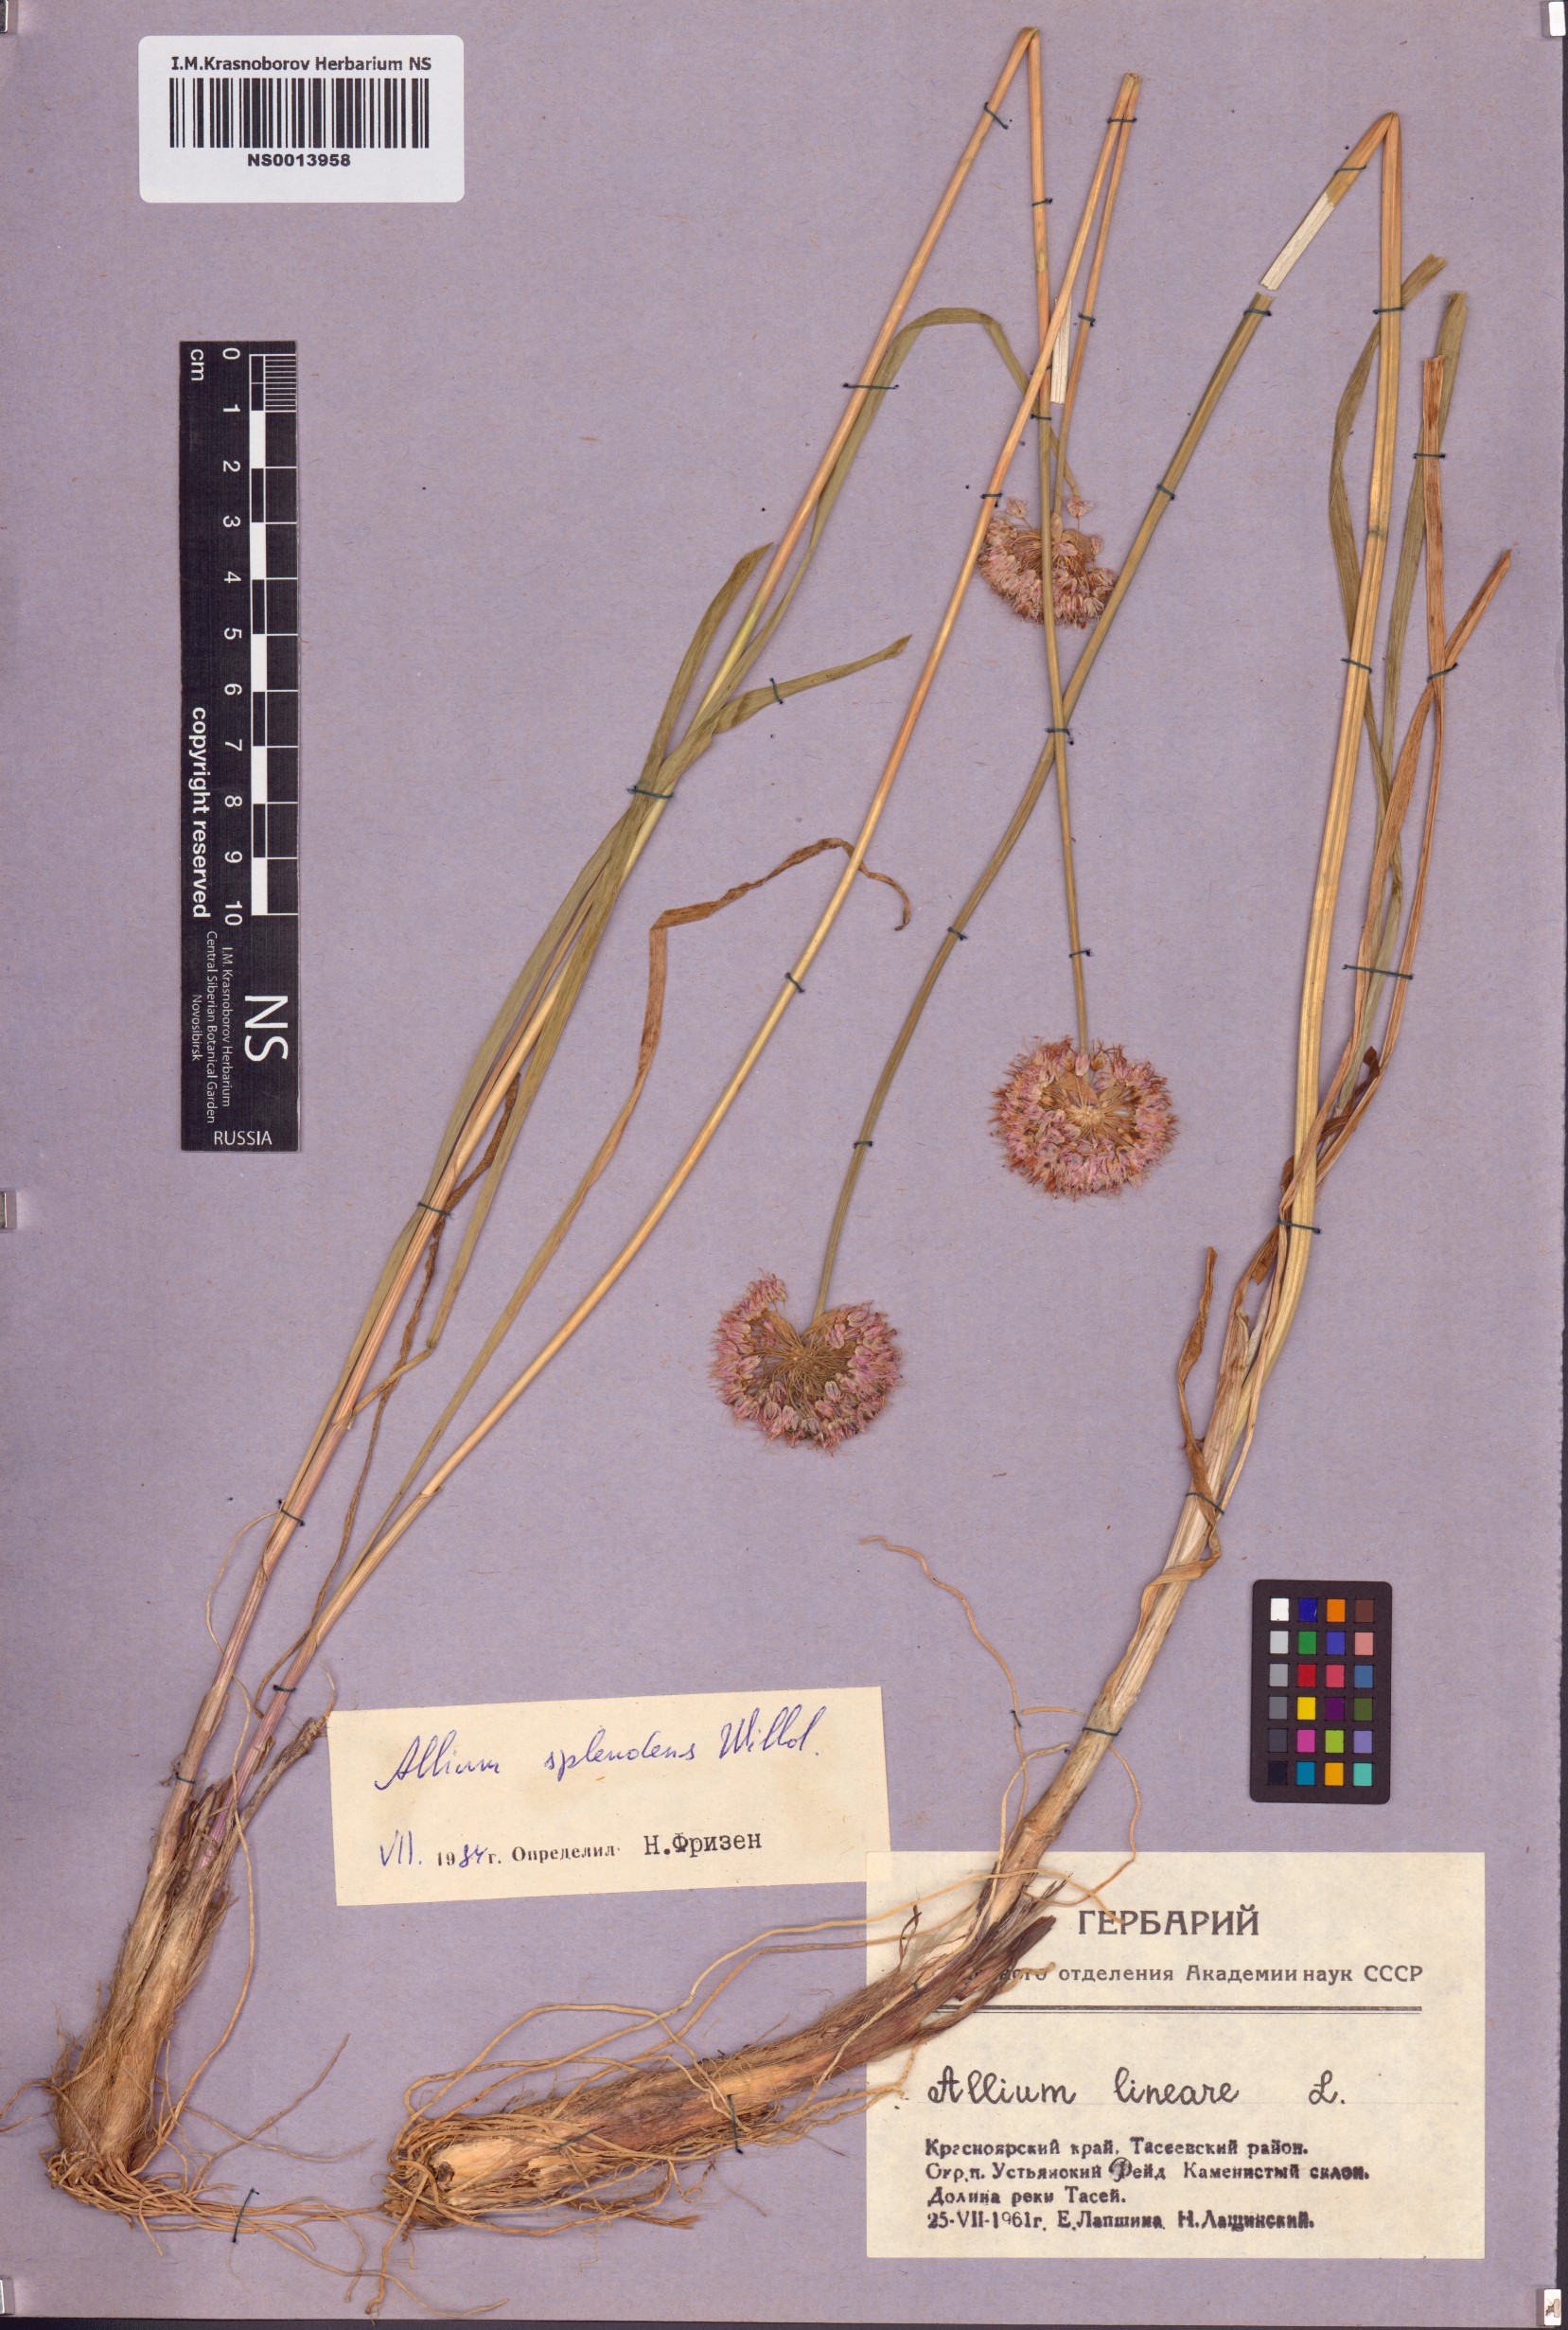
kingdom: Plantae
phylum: Tracheophyta
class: Liliopsida
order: Asparagales
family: Amaryllidaceae
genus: Allium
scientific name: Allium splendens
